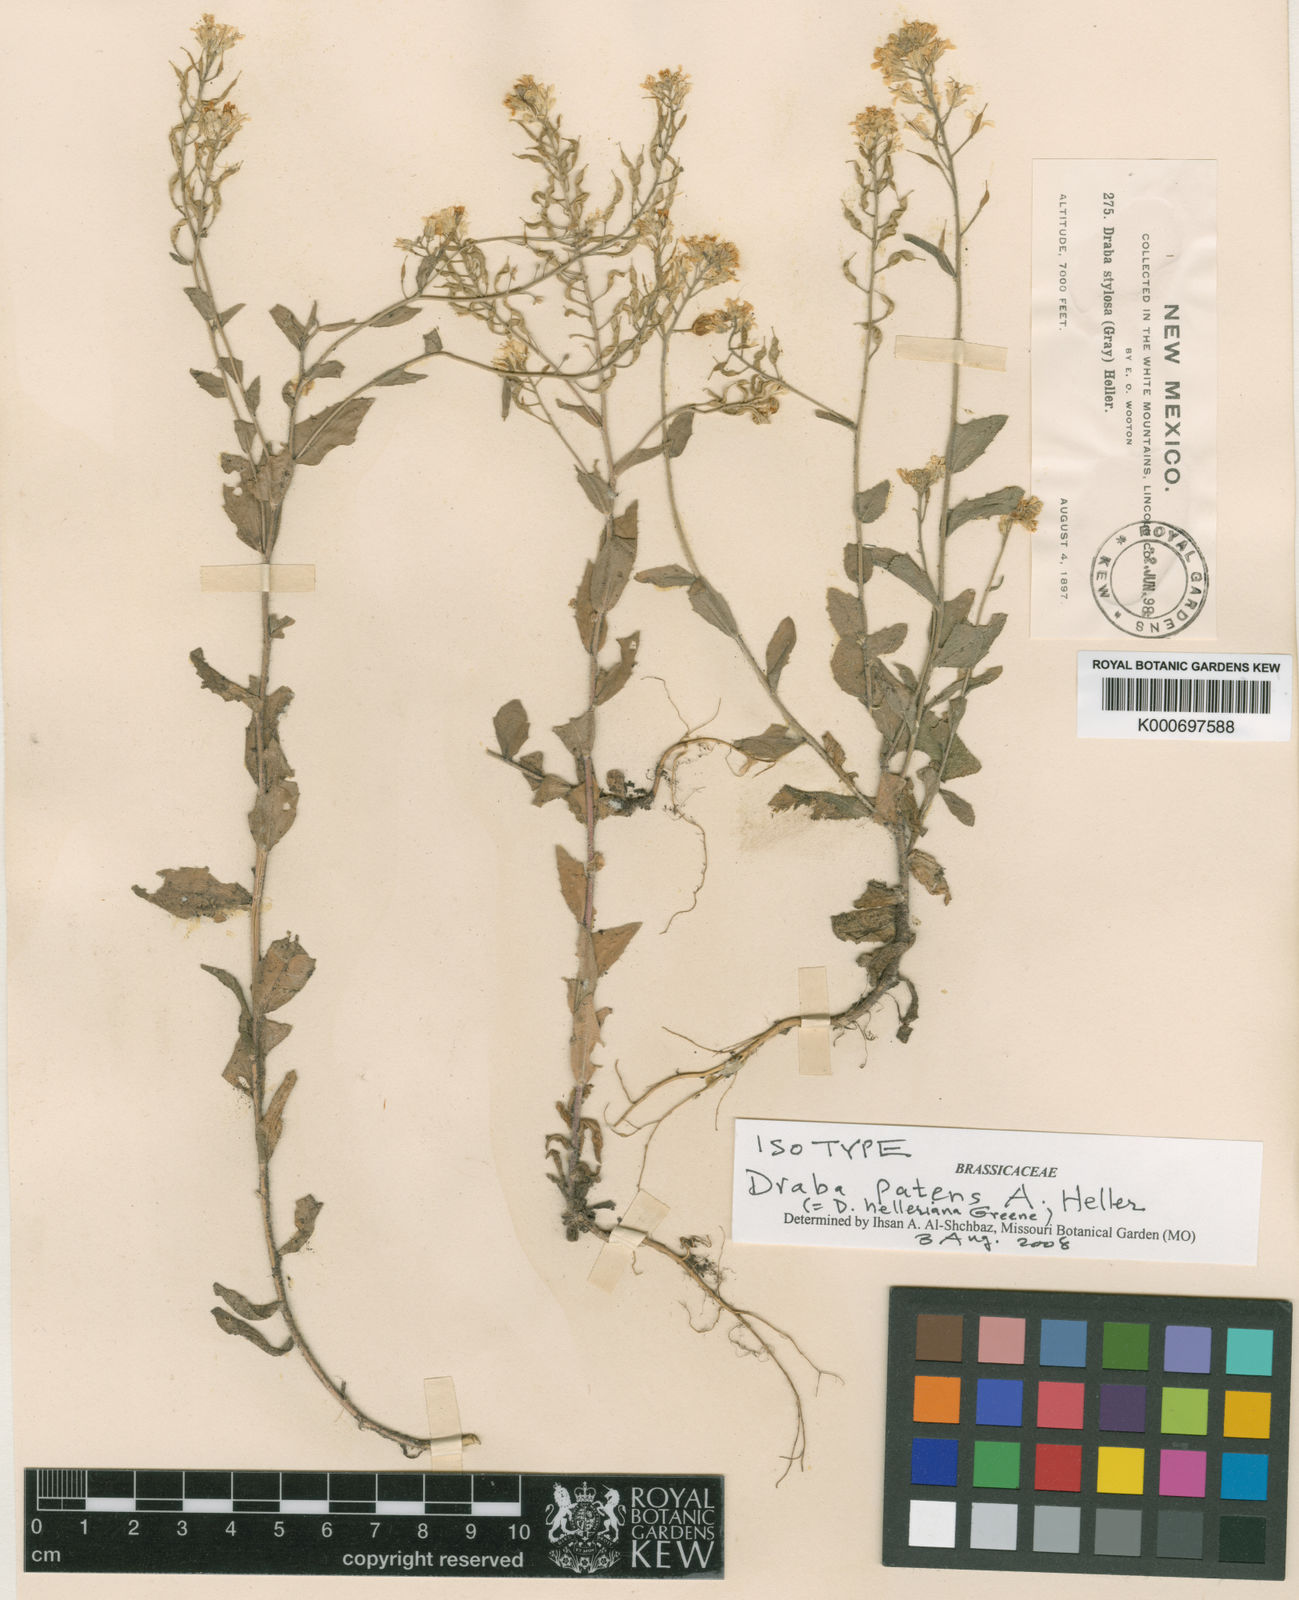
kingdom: Plantae
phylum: Tracheophyta
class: Magnoliopsida
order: Brassicales
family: Brassicaceae
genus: Draba
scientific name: Draba helleriana
